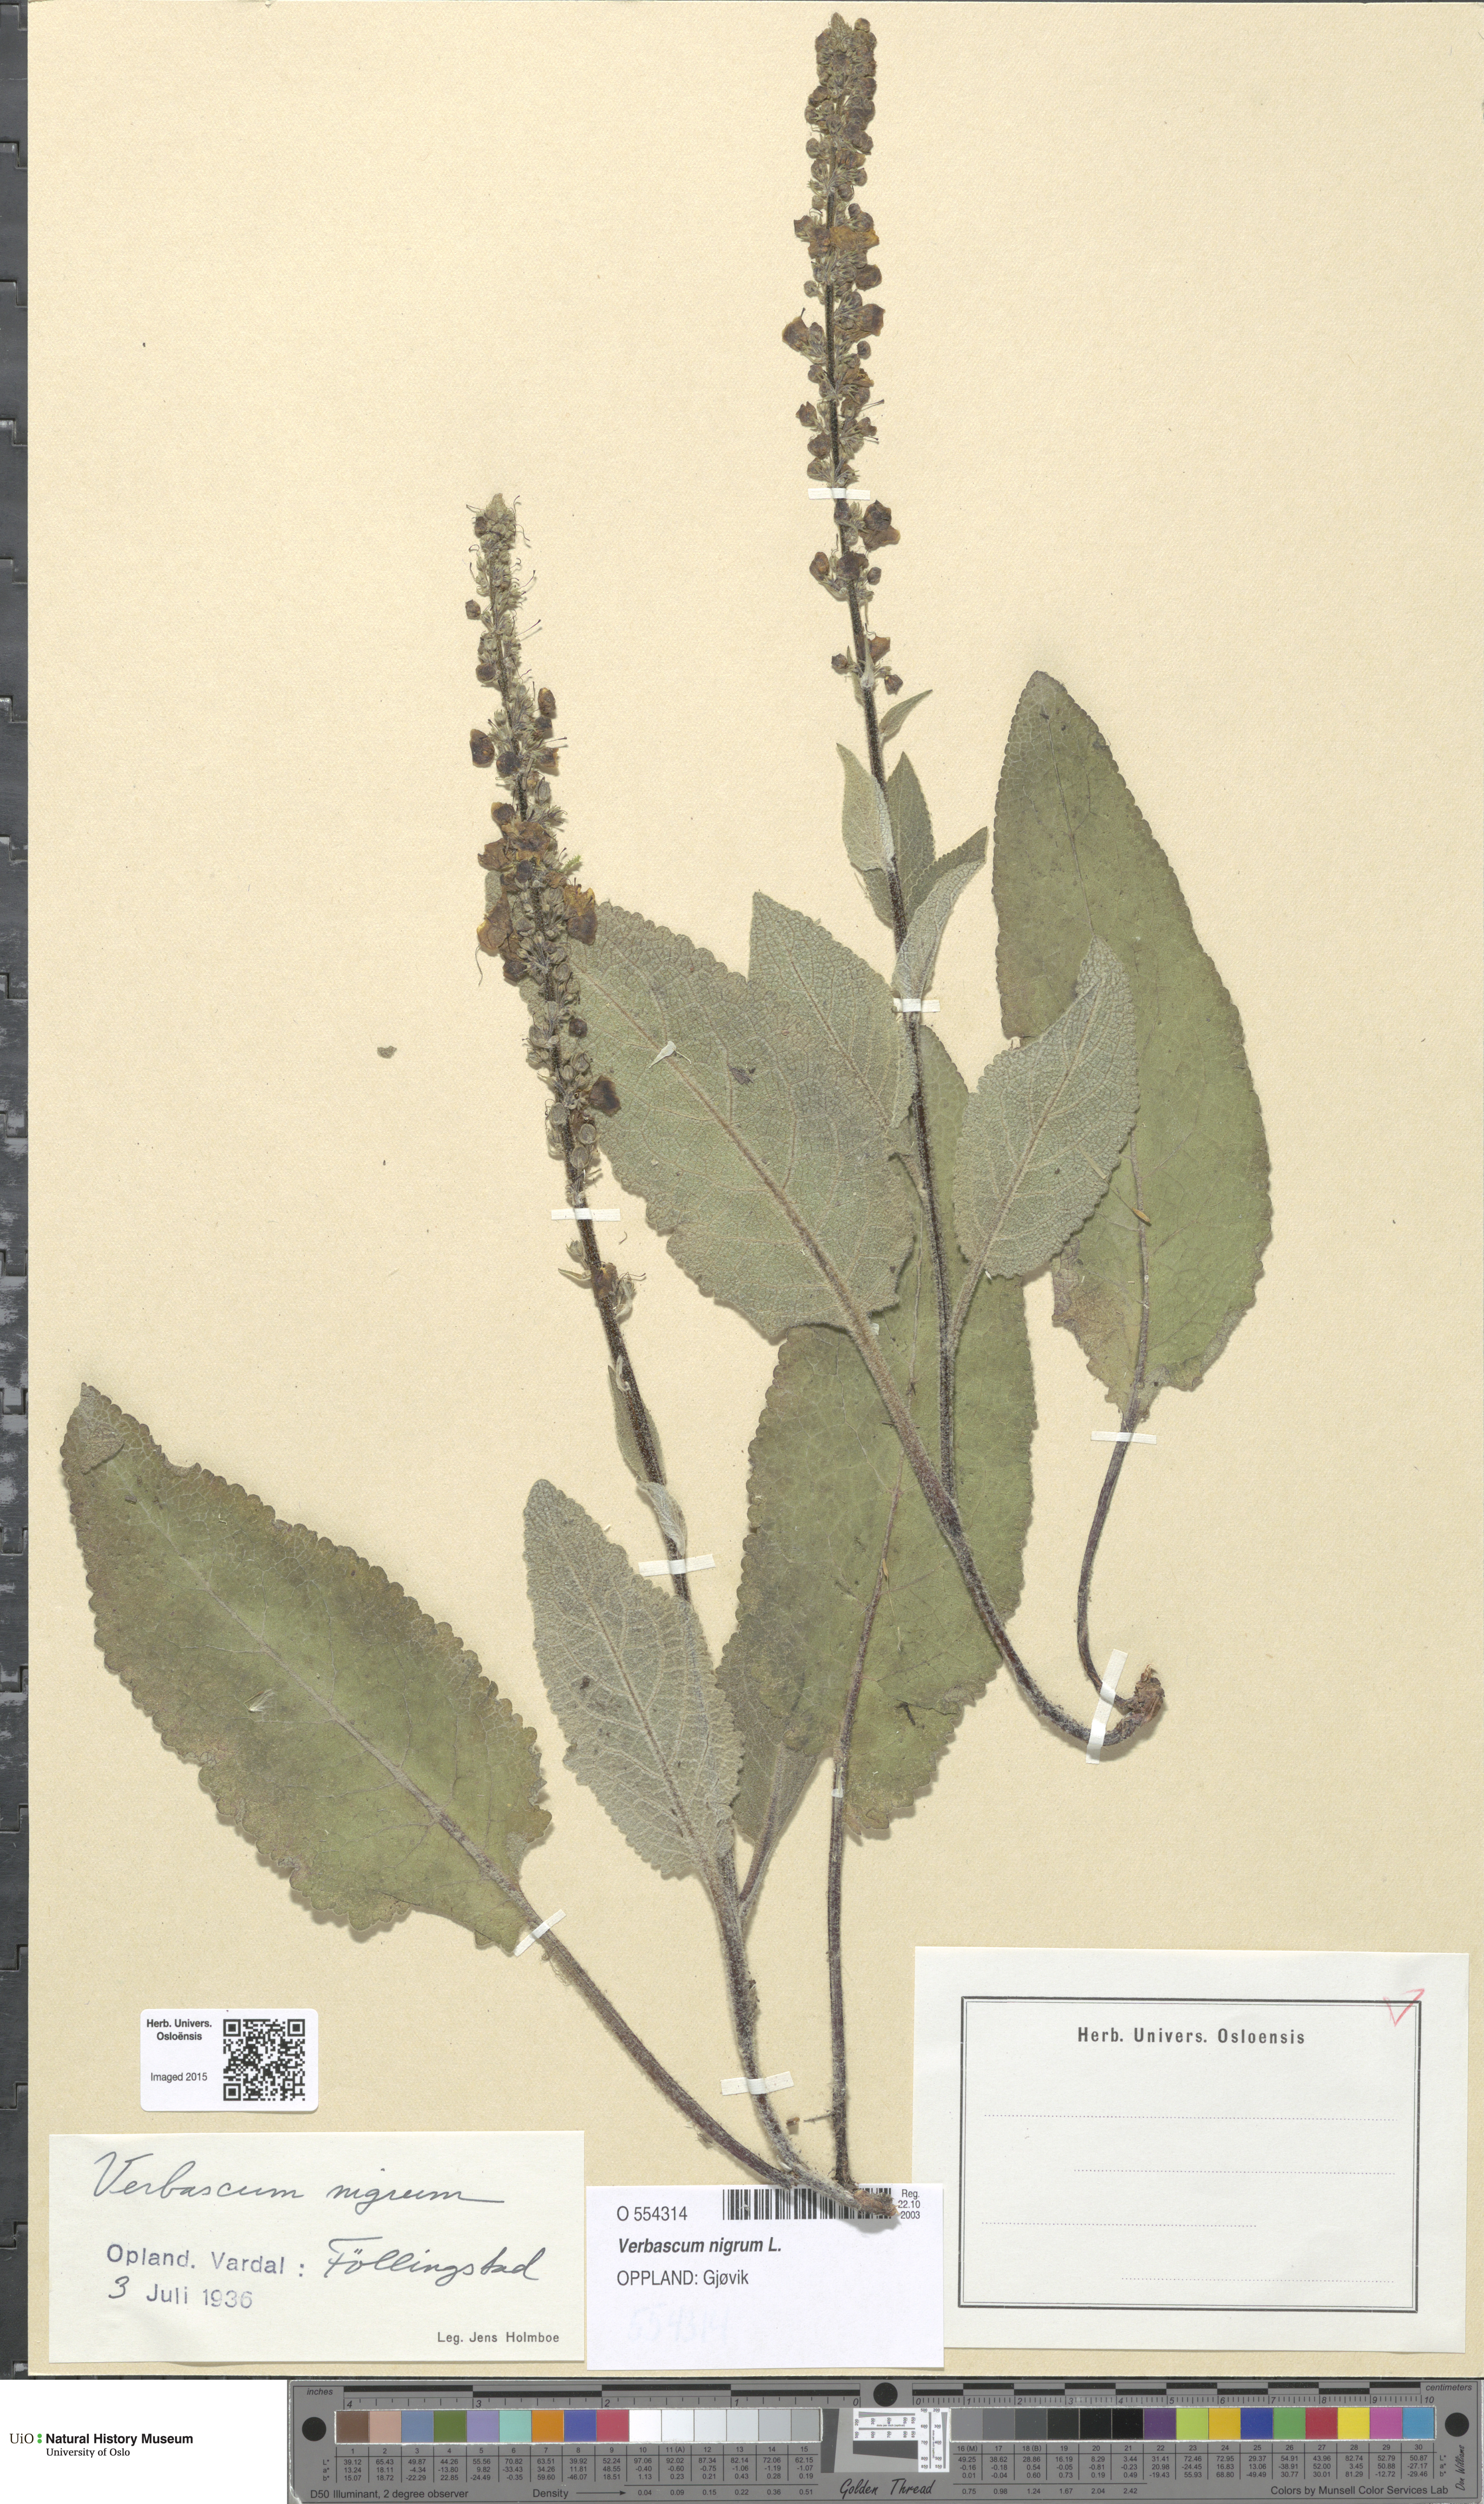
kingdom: Plantae
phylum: Tracheophyta
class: Magnoliopsida
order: Lamiales
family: Scrophulariaceae
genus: Verbascum
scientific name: Verbascum nigrum
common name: Dark mullein
